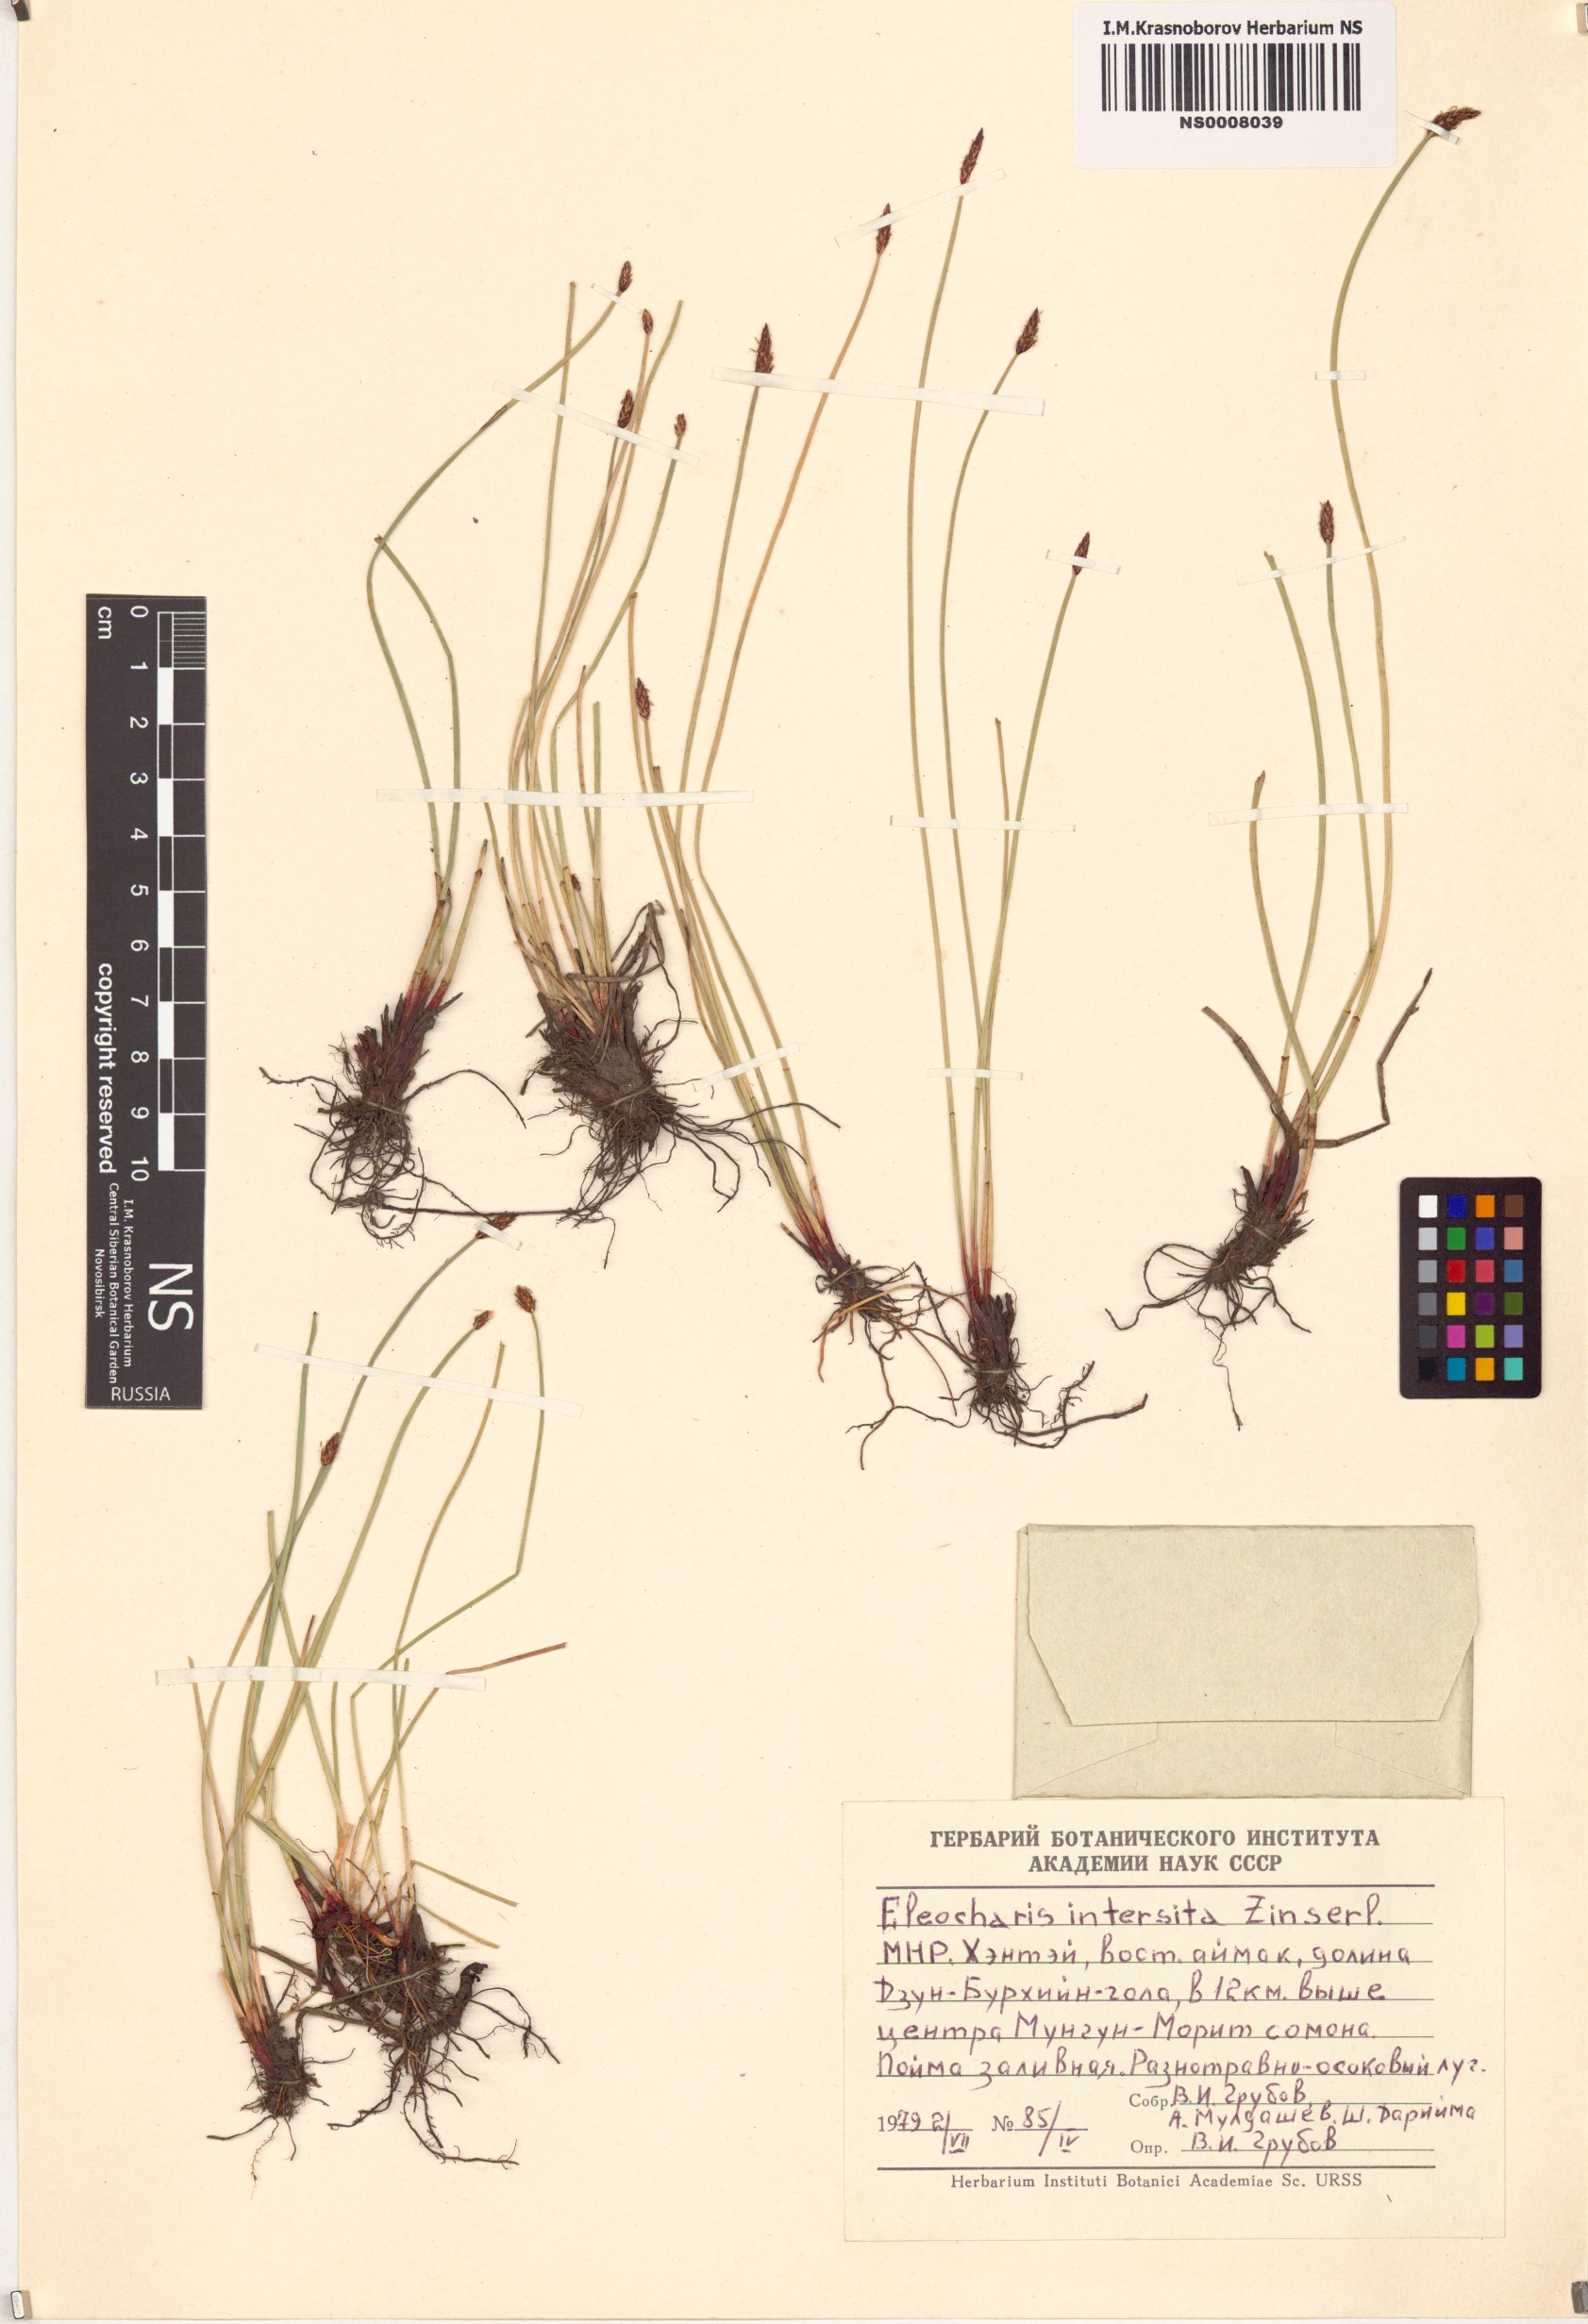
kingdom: Plantae
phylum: Tracheophyta
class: Liliopsida
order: Poales
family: Cyperaceae
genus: Eleocharis
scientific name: Eleocharis palustris
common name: Common spike-rush
